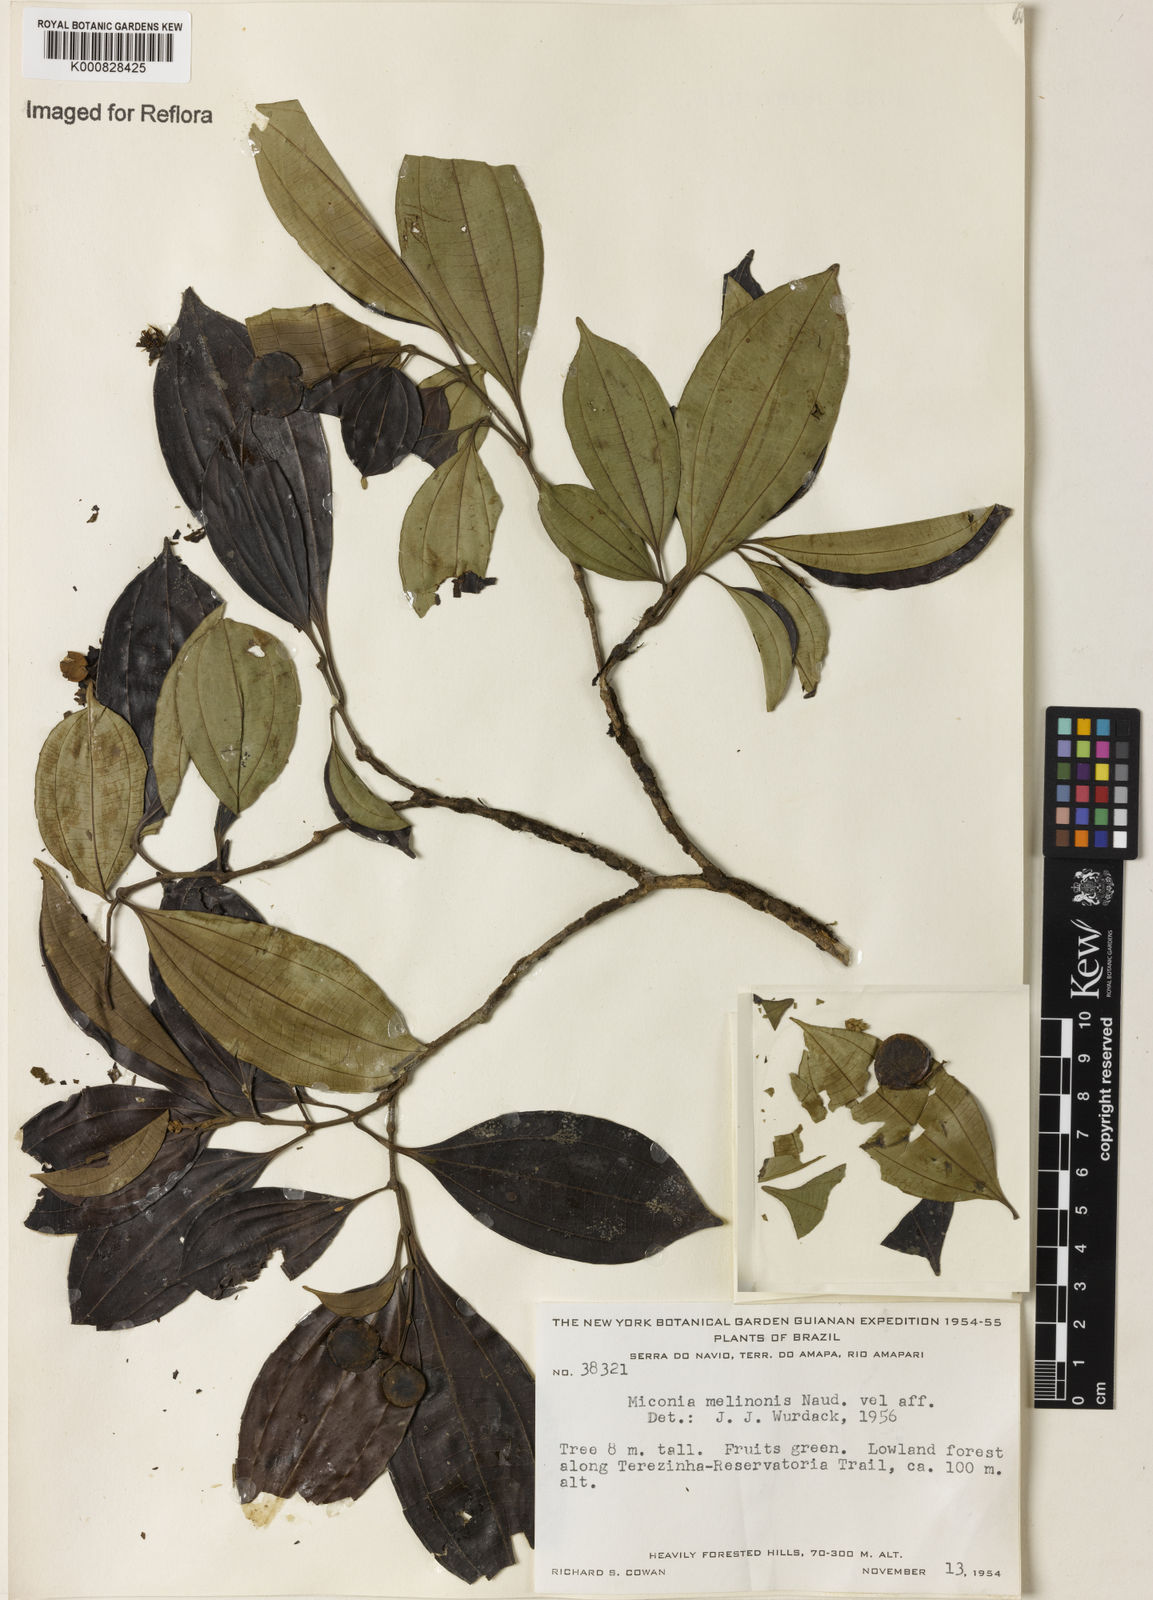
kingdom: Plantae
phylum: Tracheophyta
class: Magnoliopsida
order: Myrtales
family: Melastomataceae
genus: Miconia
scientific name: Miconia melinonis
